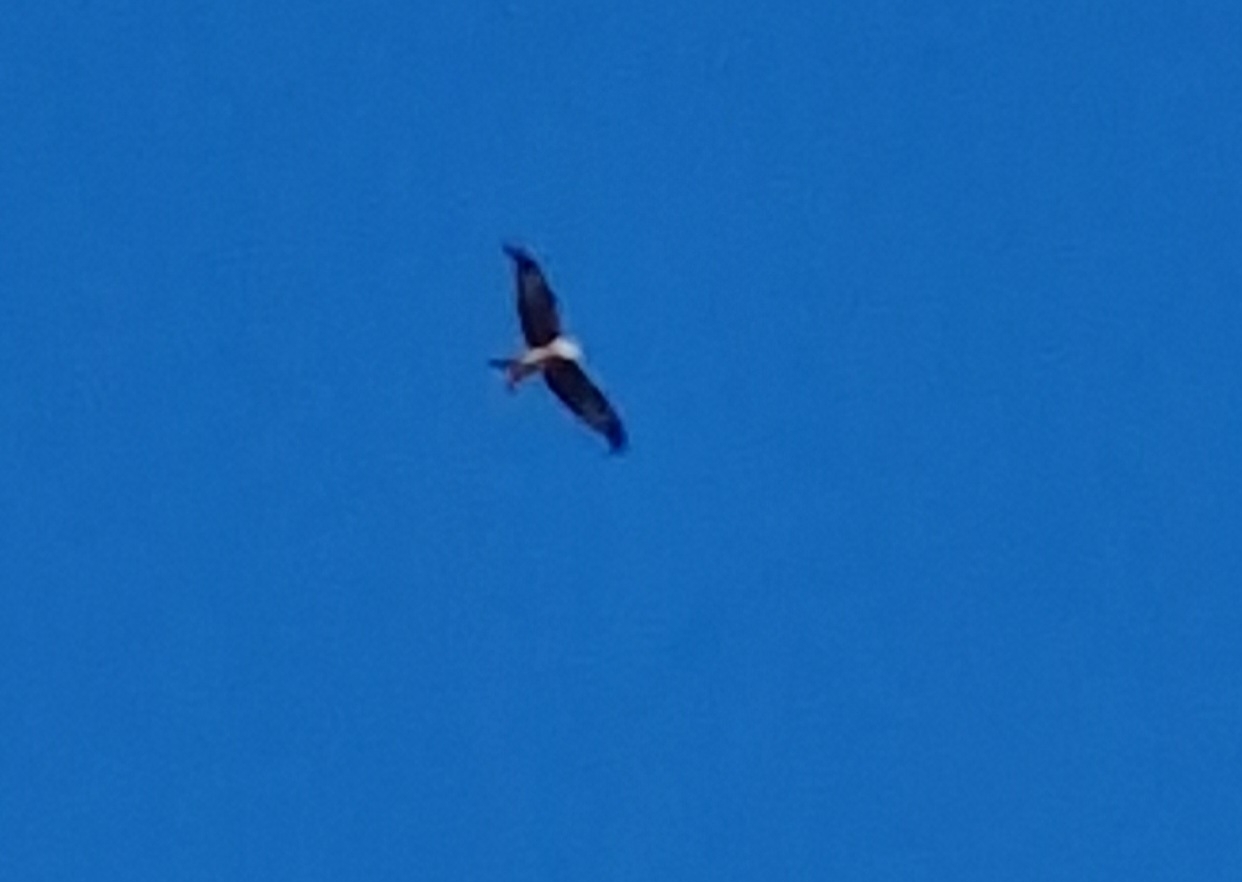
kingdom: Animalia
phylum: Chordata
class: Aves
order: Accipitriformes
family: Accipitridae
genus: Milvus
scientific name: Milvus milvus
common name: Rød glente
